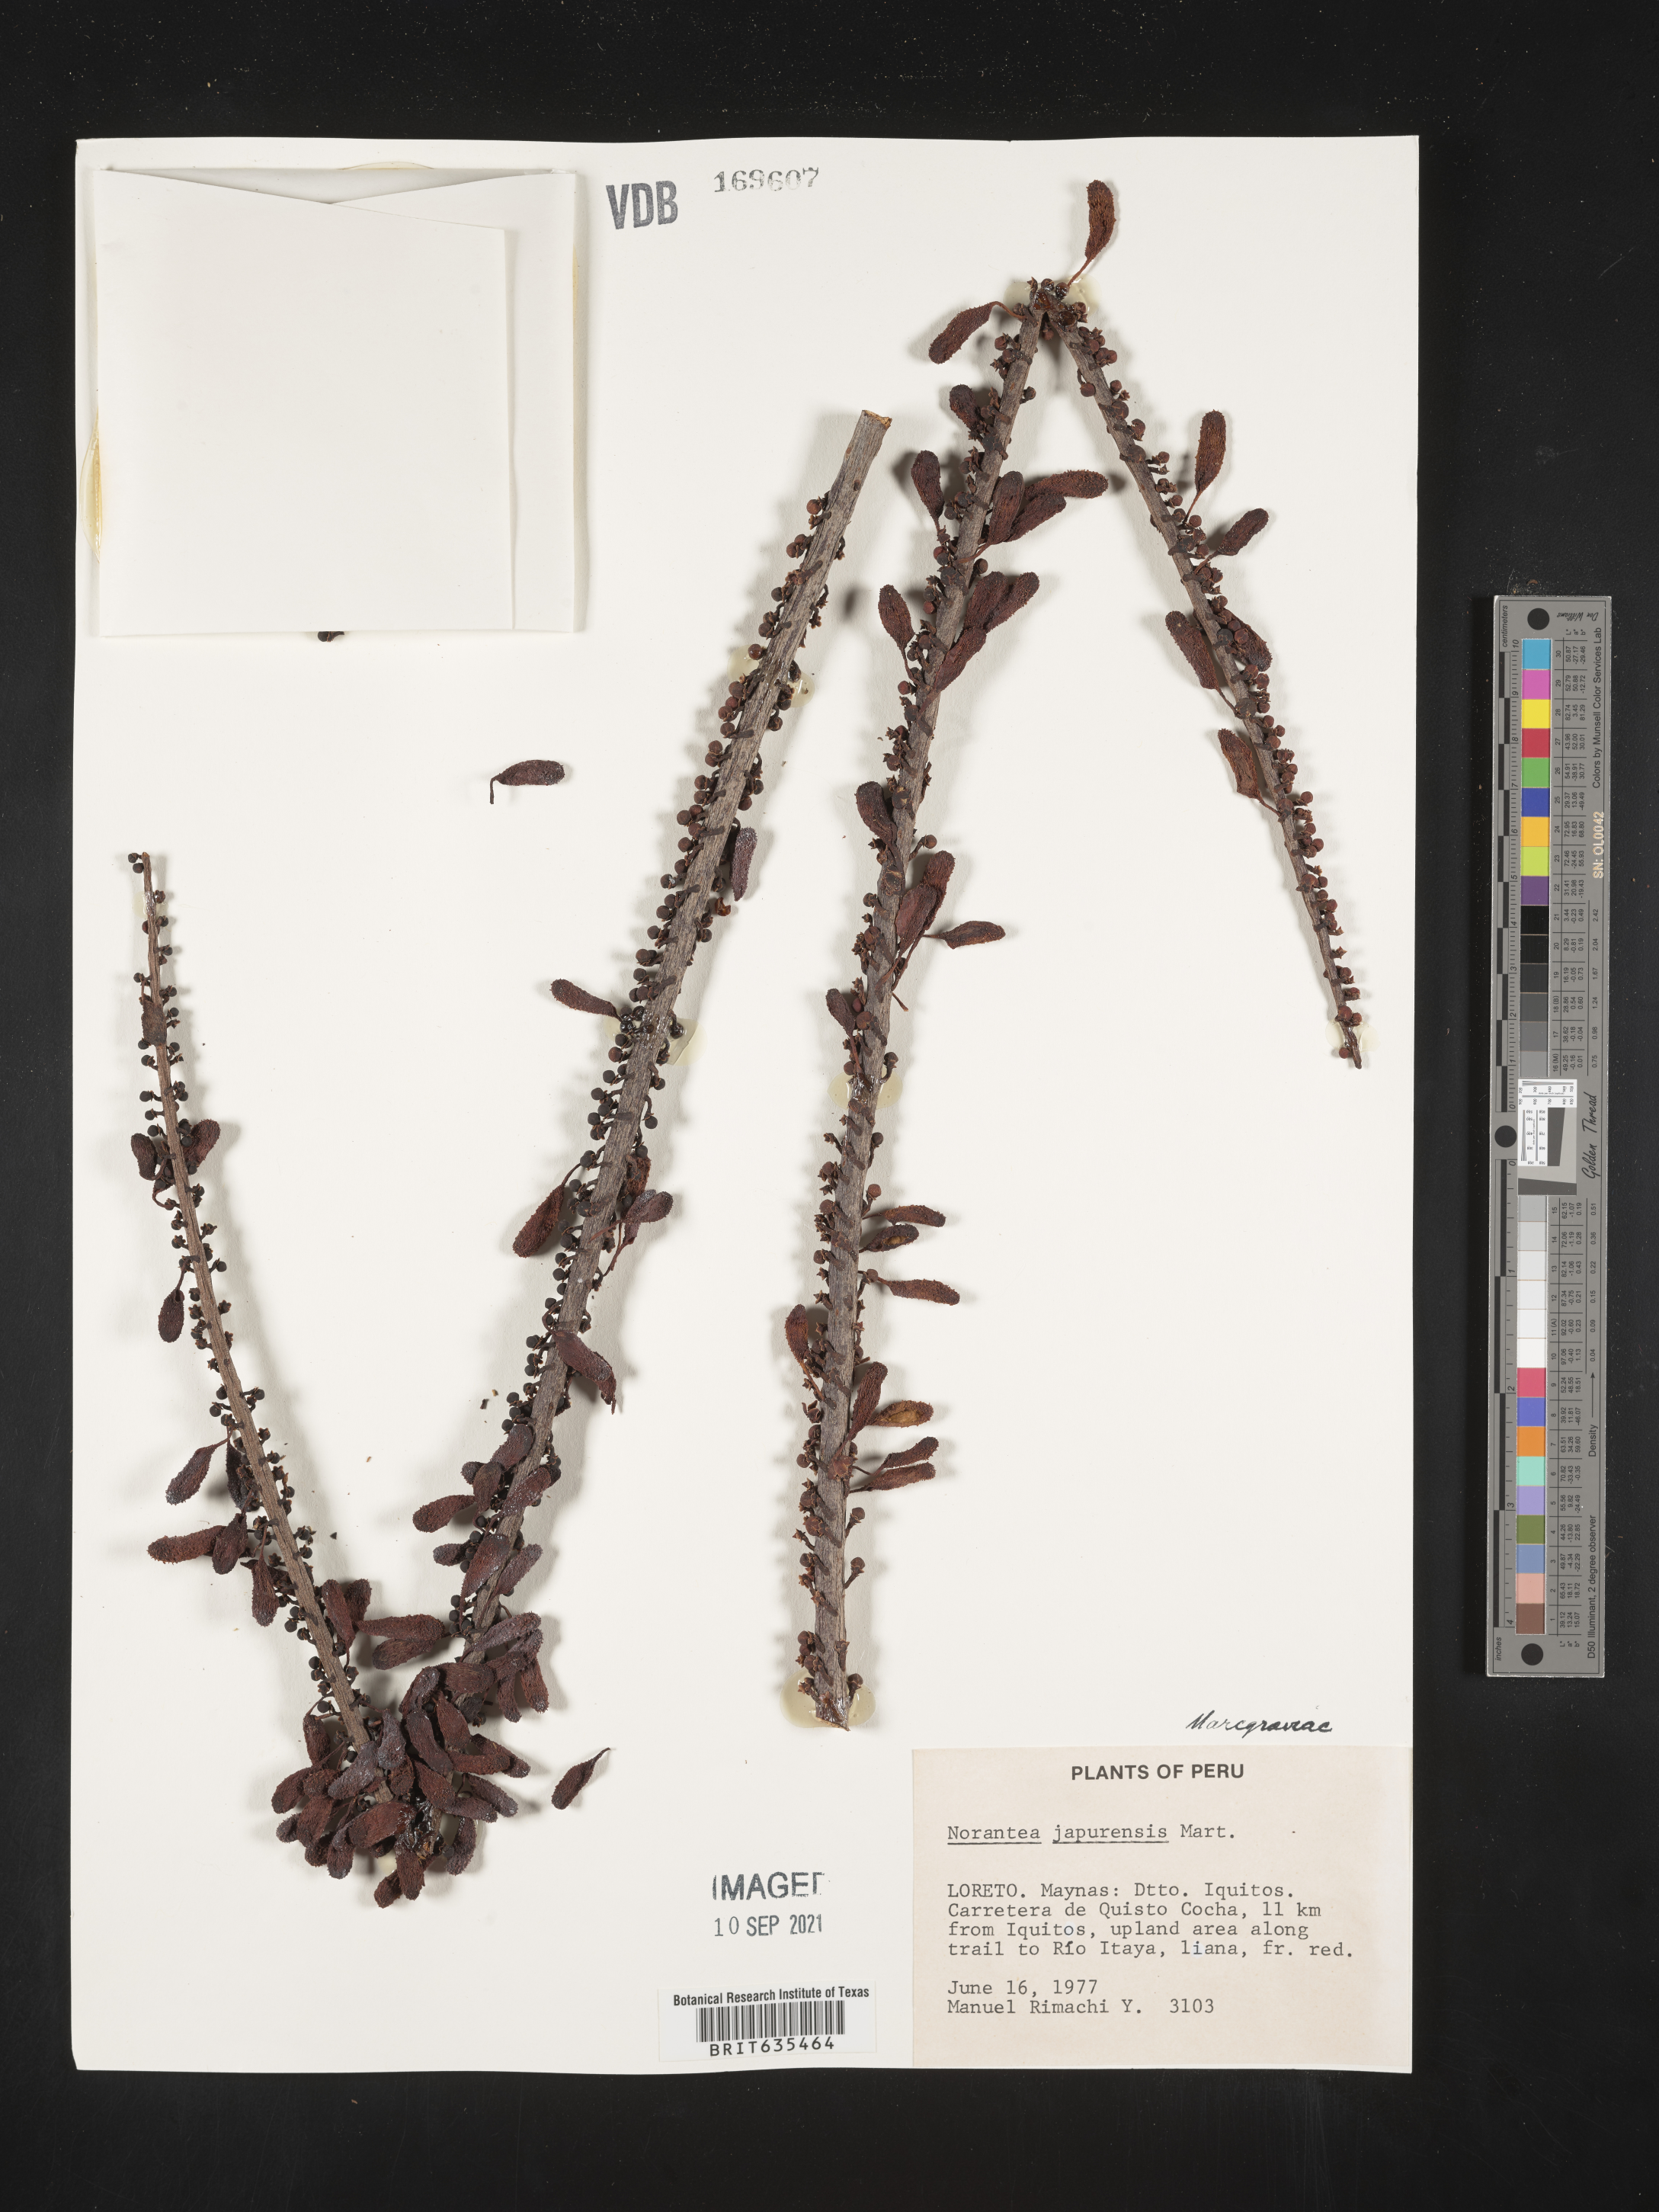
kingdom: Plantae
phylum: Tracheophyta
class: Magnoliopsida
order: Ericales
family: Marcgraviaceae
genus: Norantea
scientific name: Norantea
